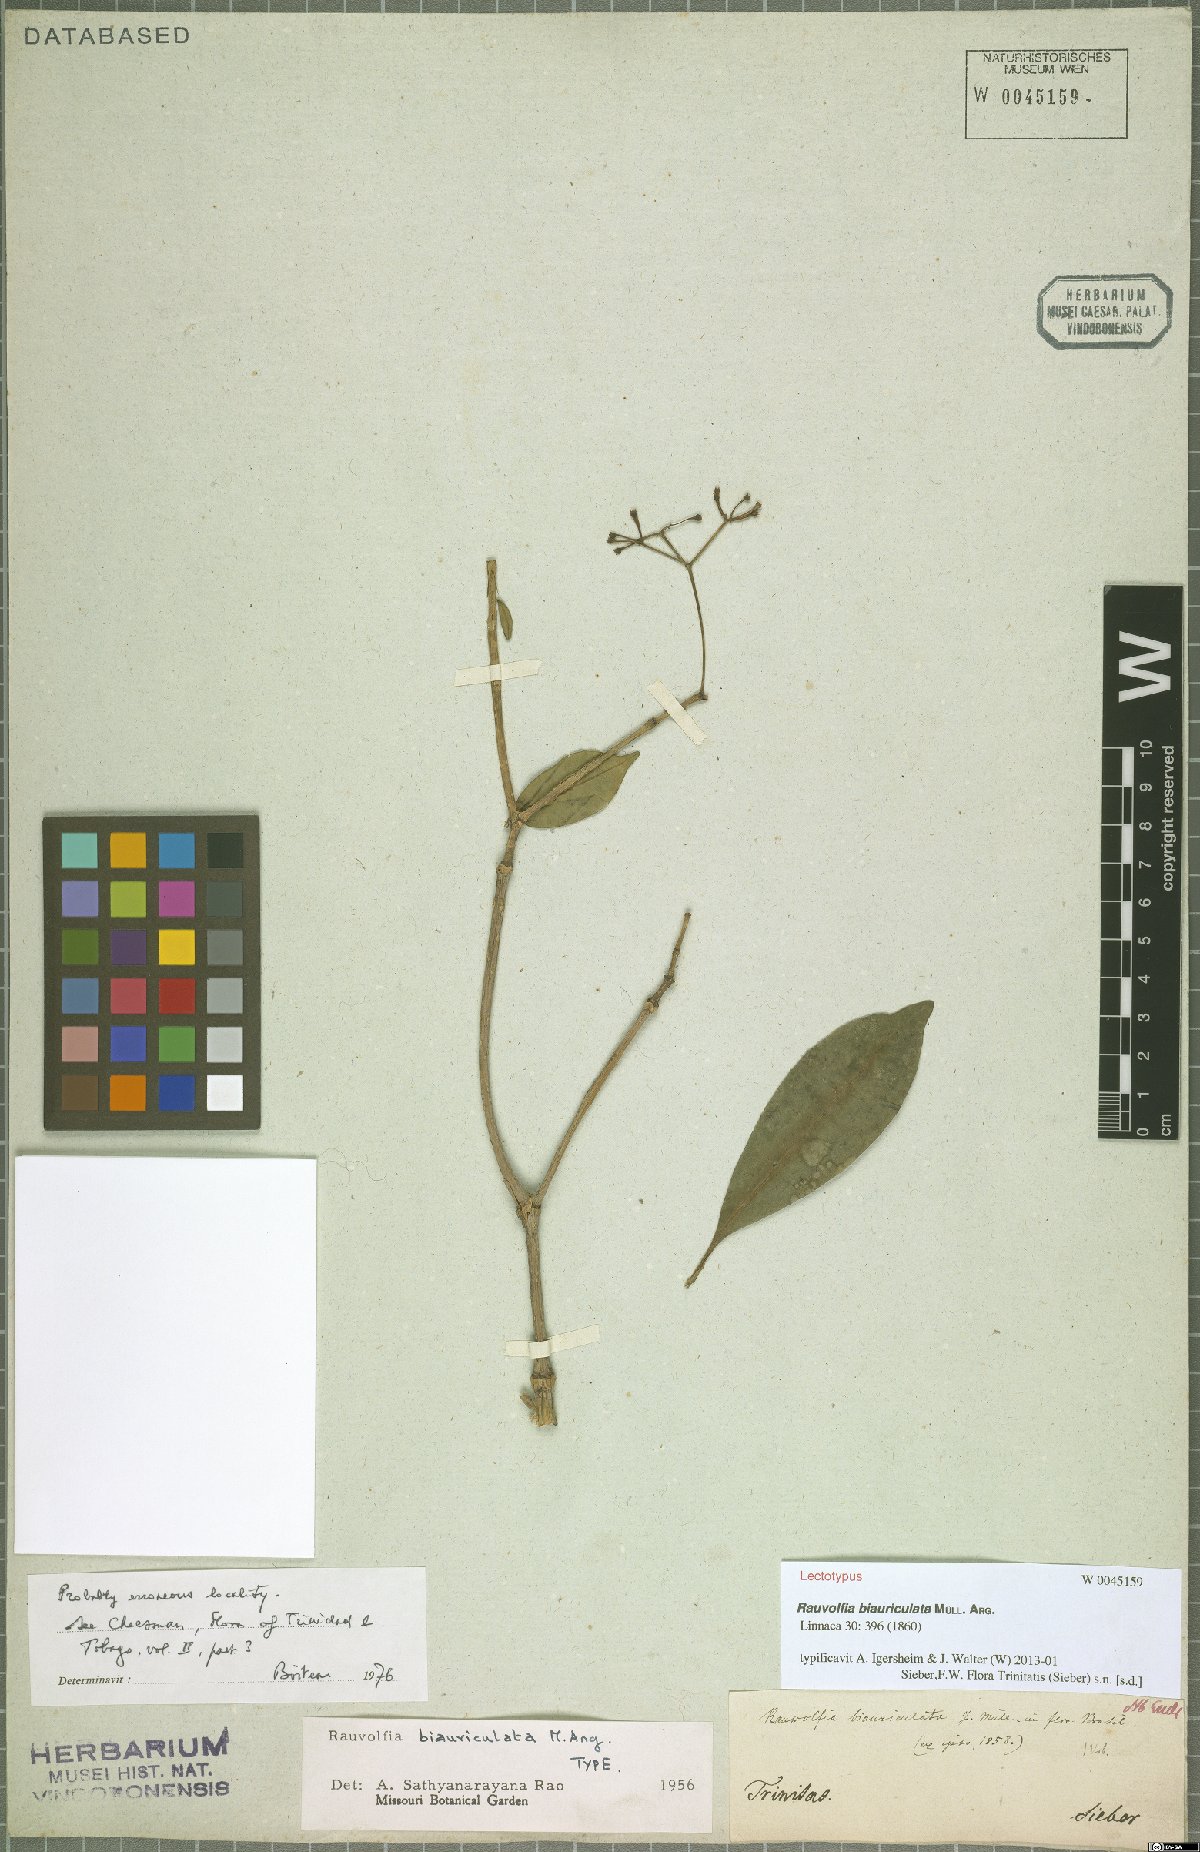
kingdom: Plantae
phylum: Tracheophyta
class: Magnoliopsida
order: Gentianales
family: Apocynaceae
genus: Rauvolfia
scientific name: Rauvolfia biauriculata
